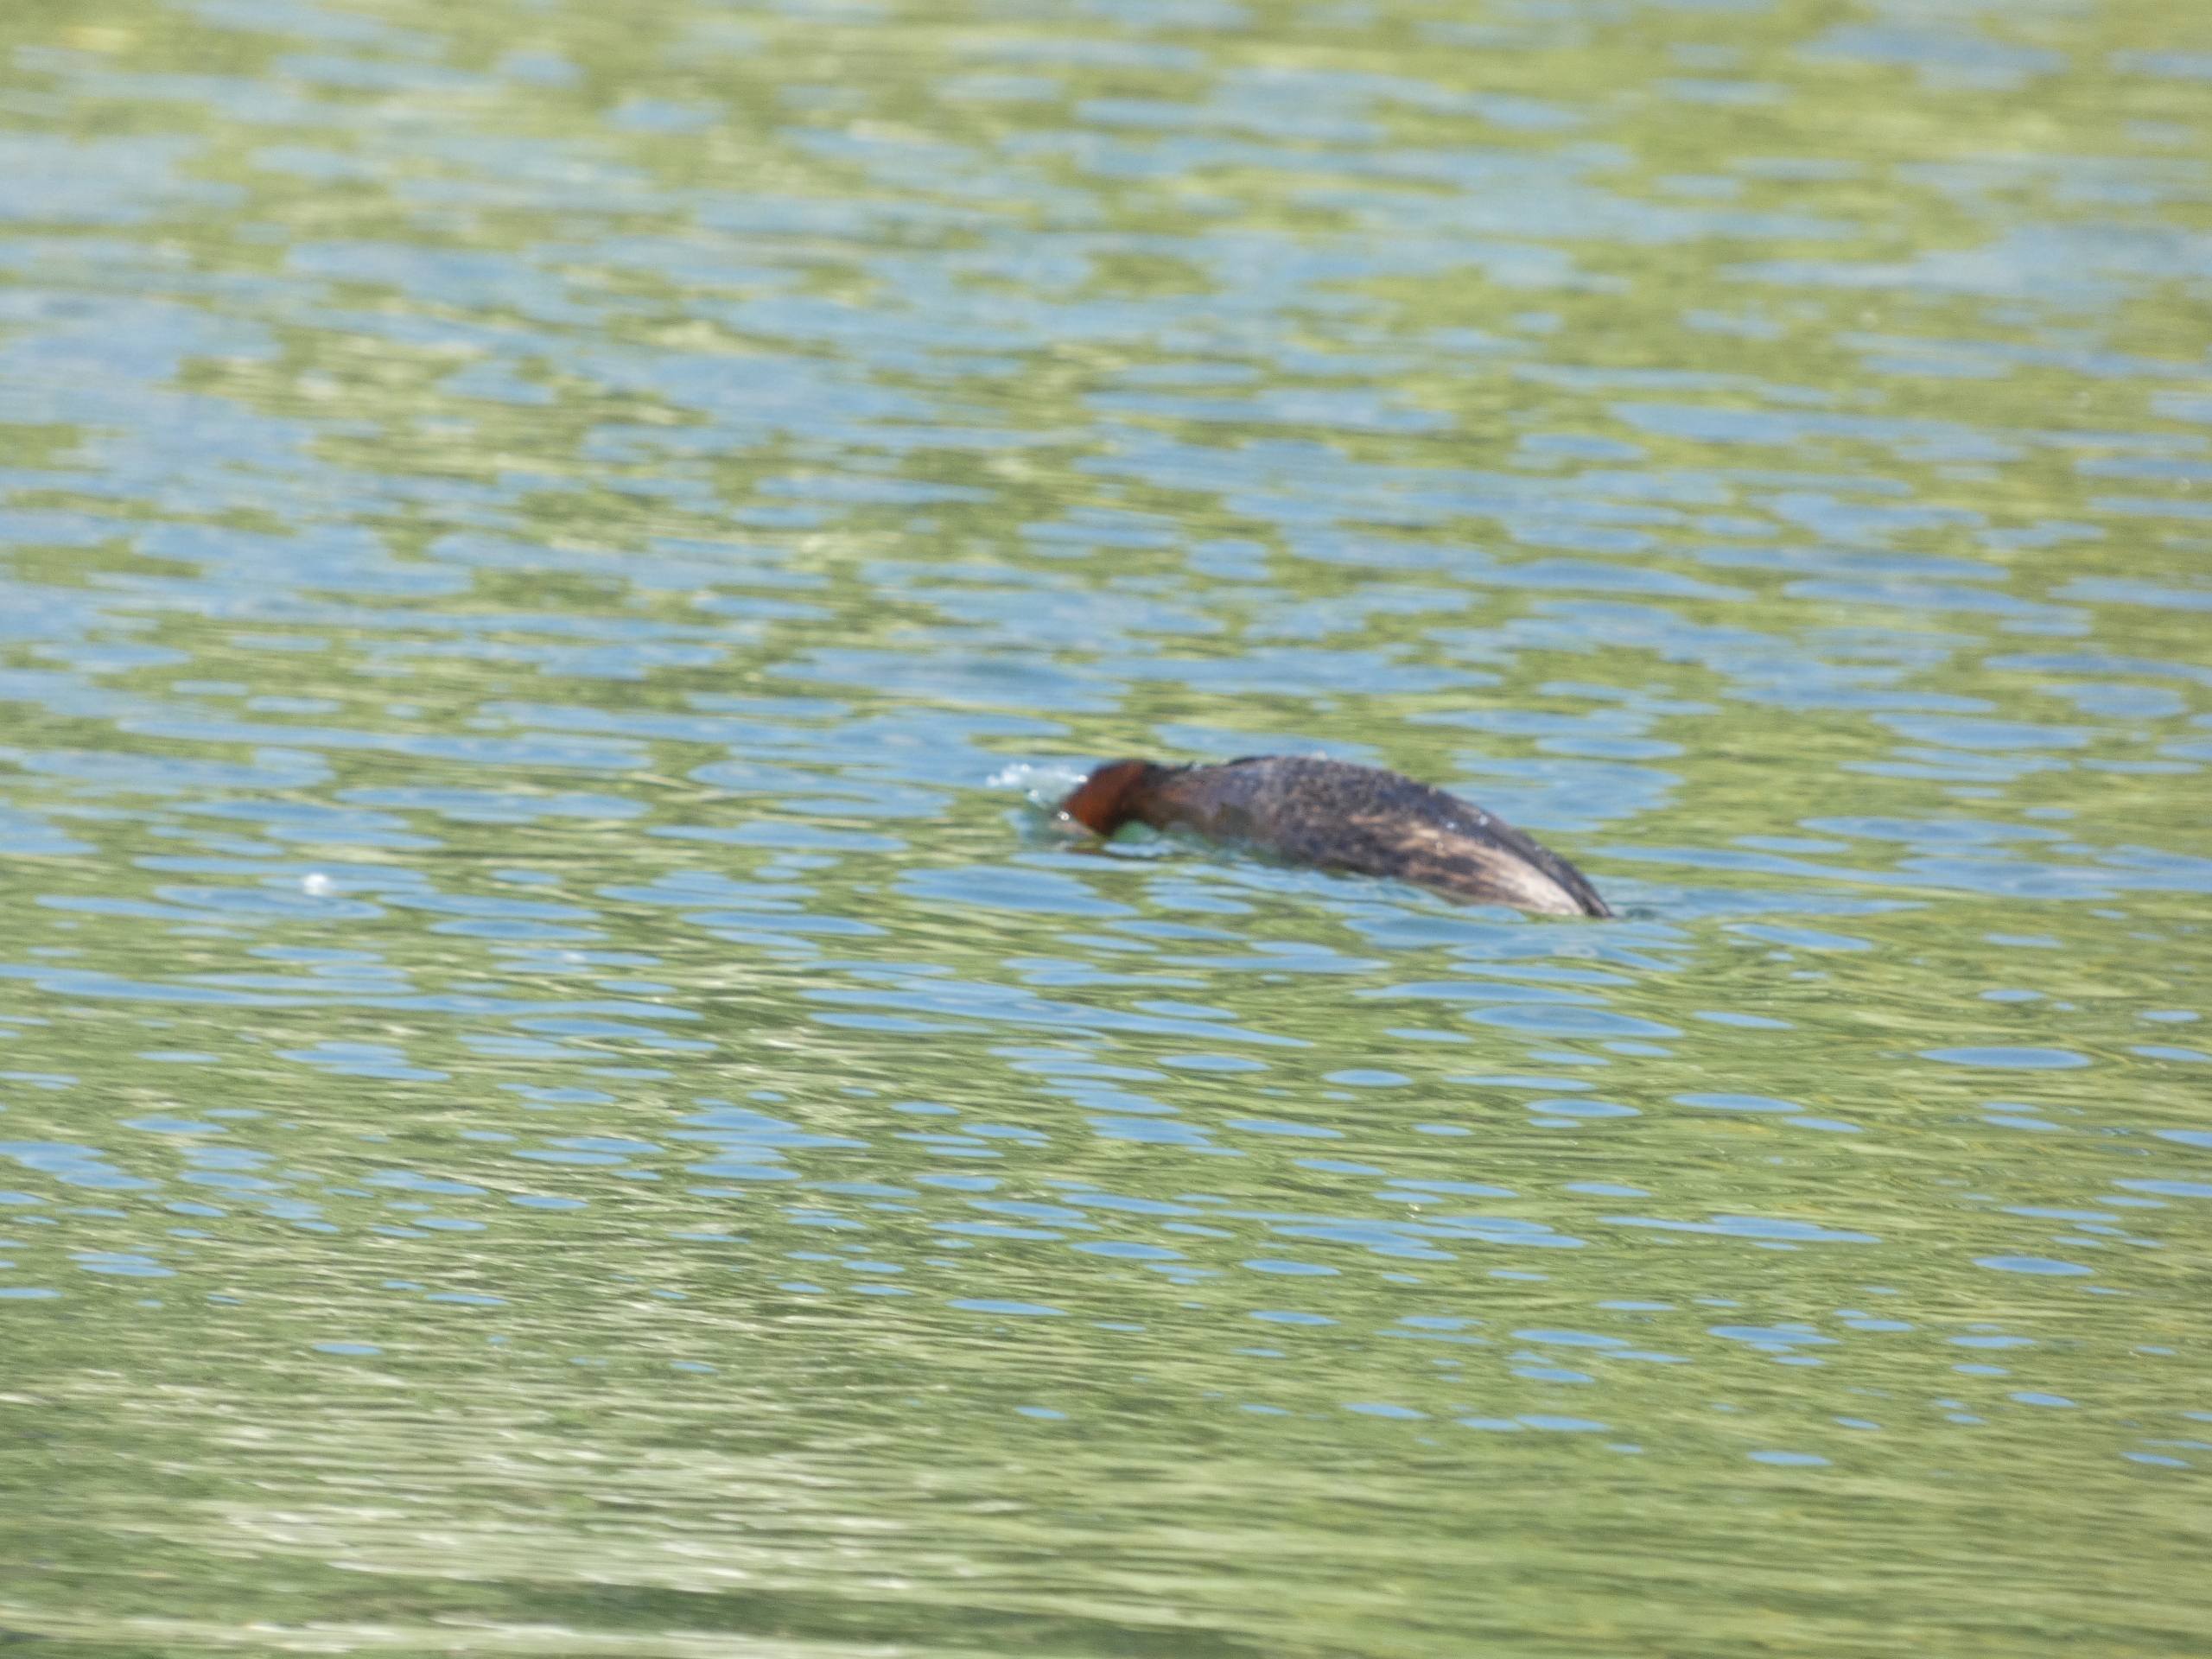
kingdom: Animalia
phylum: Chordata
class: Aves
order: Podicipediformes
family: Podicipedidae
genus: Podiceps
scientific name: Podiceps grisegena
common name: Gråstrubet lappedykker
